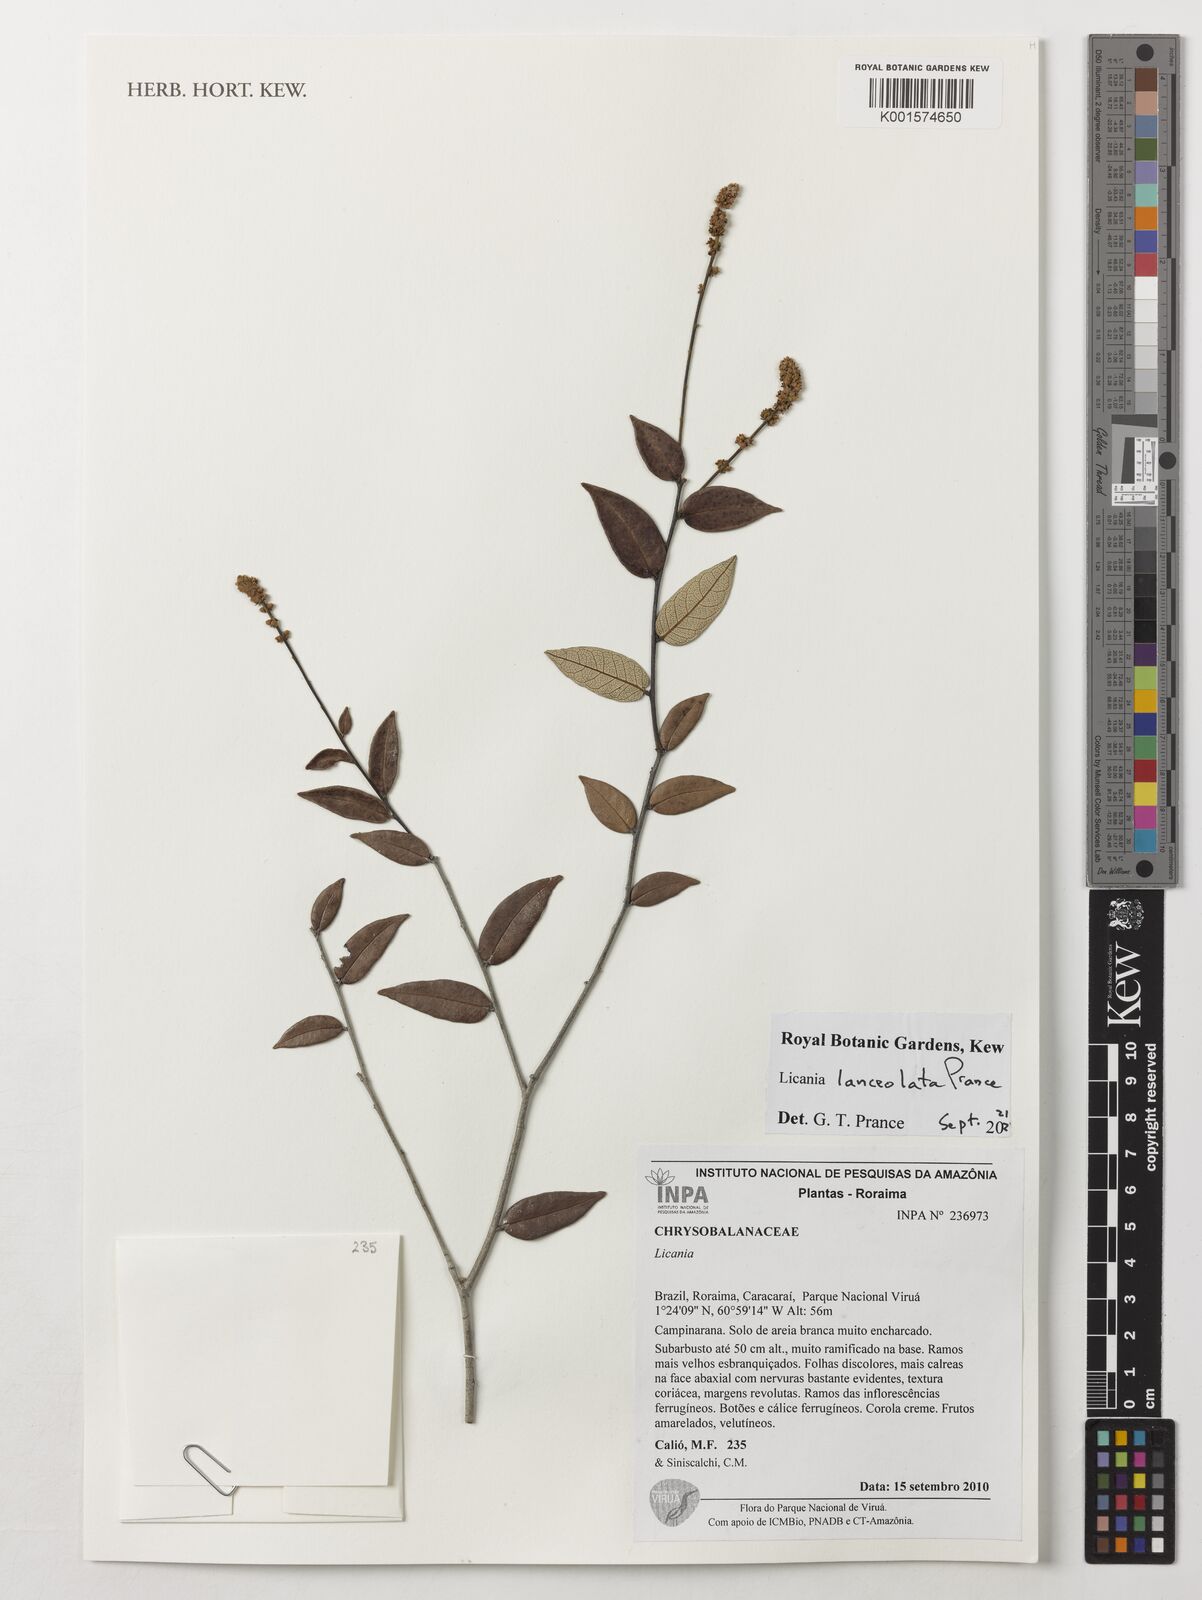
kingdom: Plantae
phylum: Tracheophyta
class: Magnoliopsida
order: Malpighiales
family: Chrysobalanaceae
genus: Licania
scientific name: Licania lanceolata
